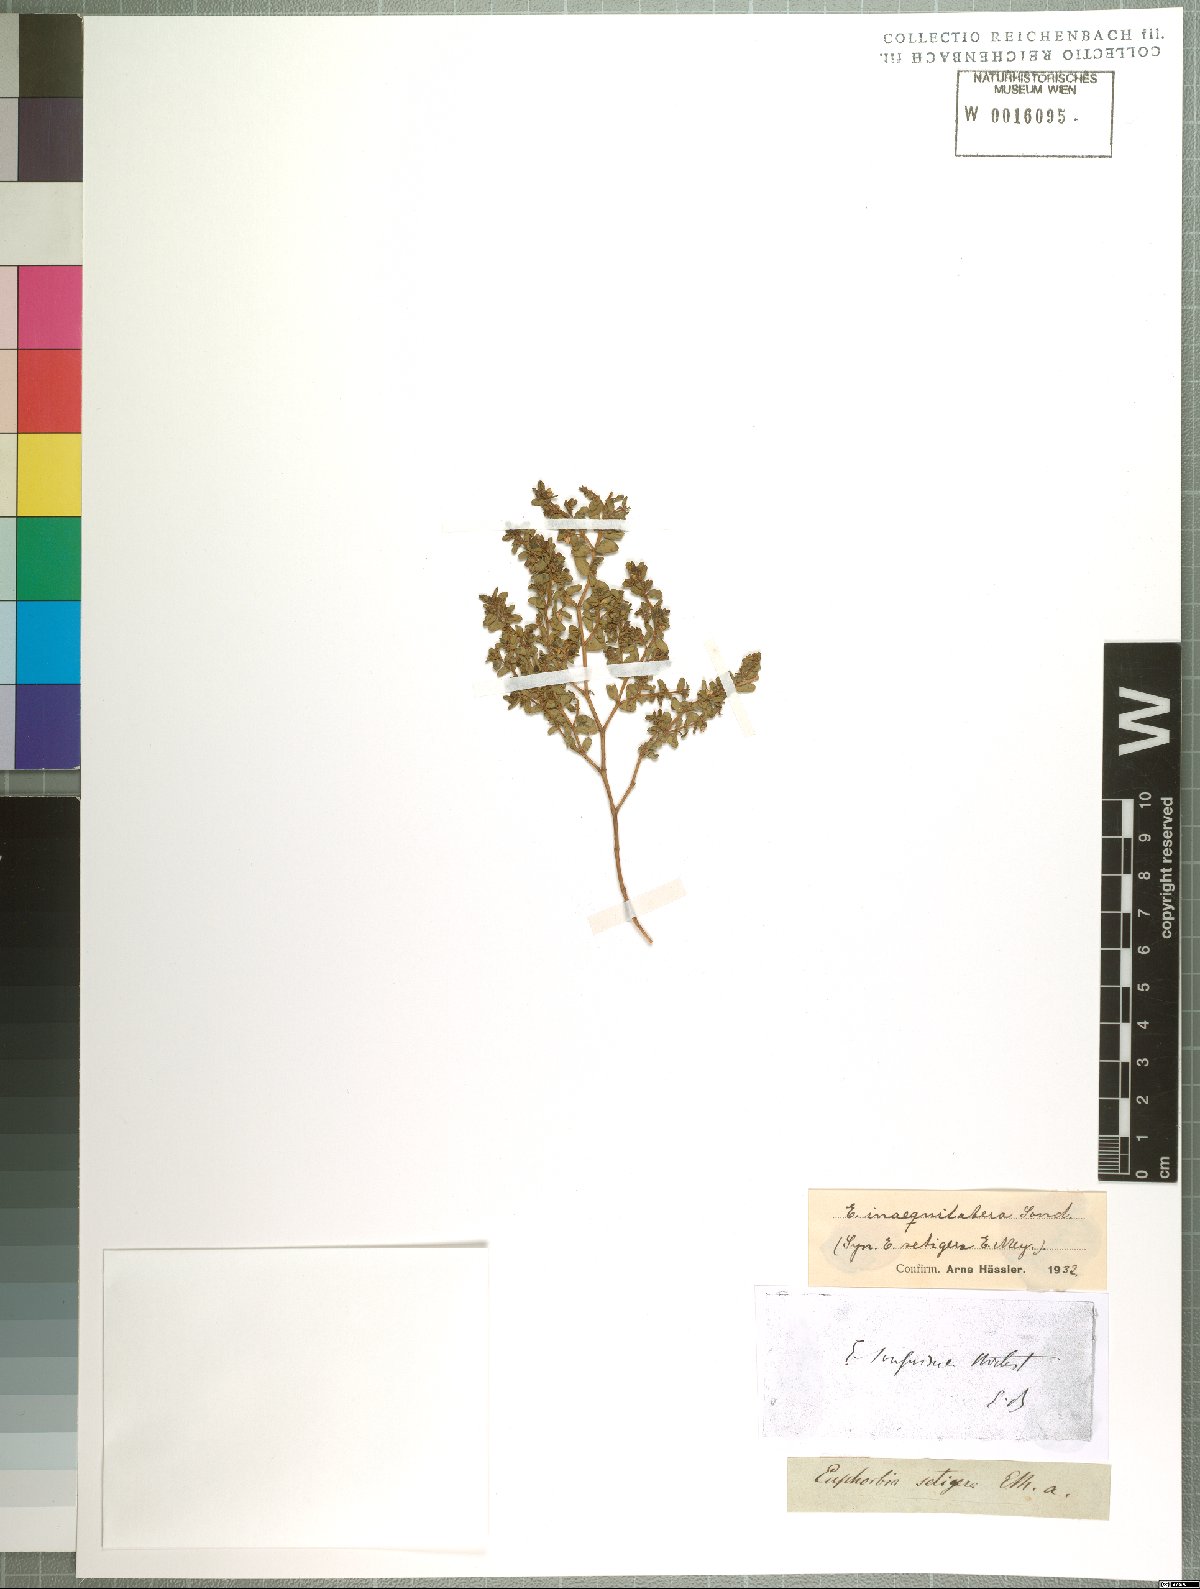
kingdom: Plantae
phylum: Tracheophyta
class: Magnoliopsida
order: Malpighiales
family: Euphorbiaceae
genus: Euphorbia
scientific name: Euphorbia inaequilatera
